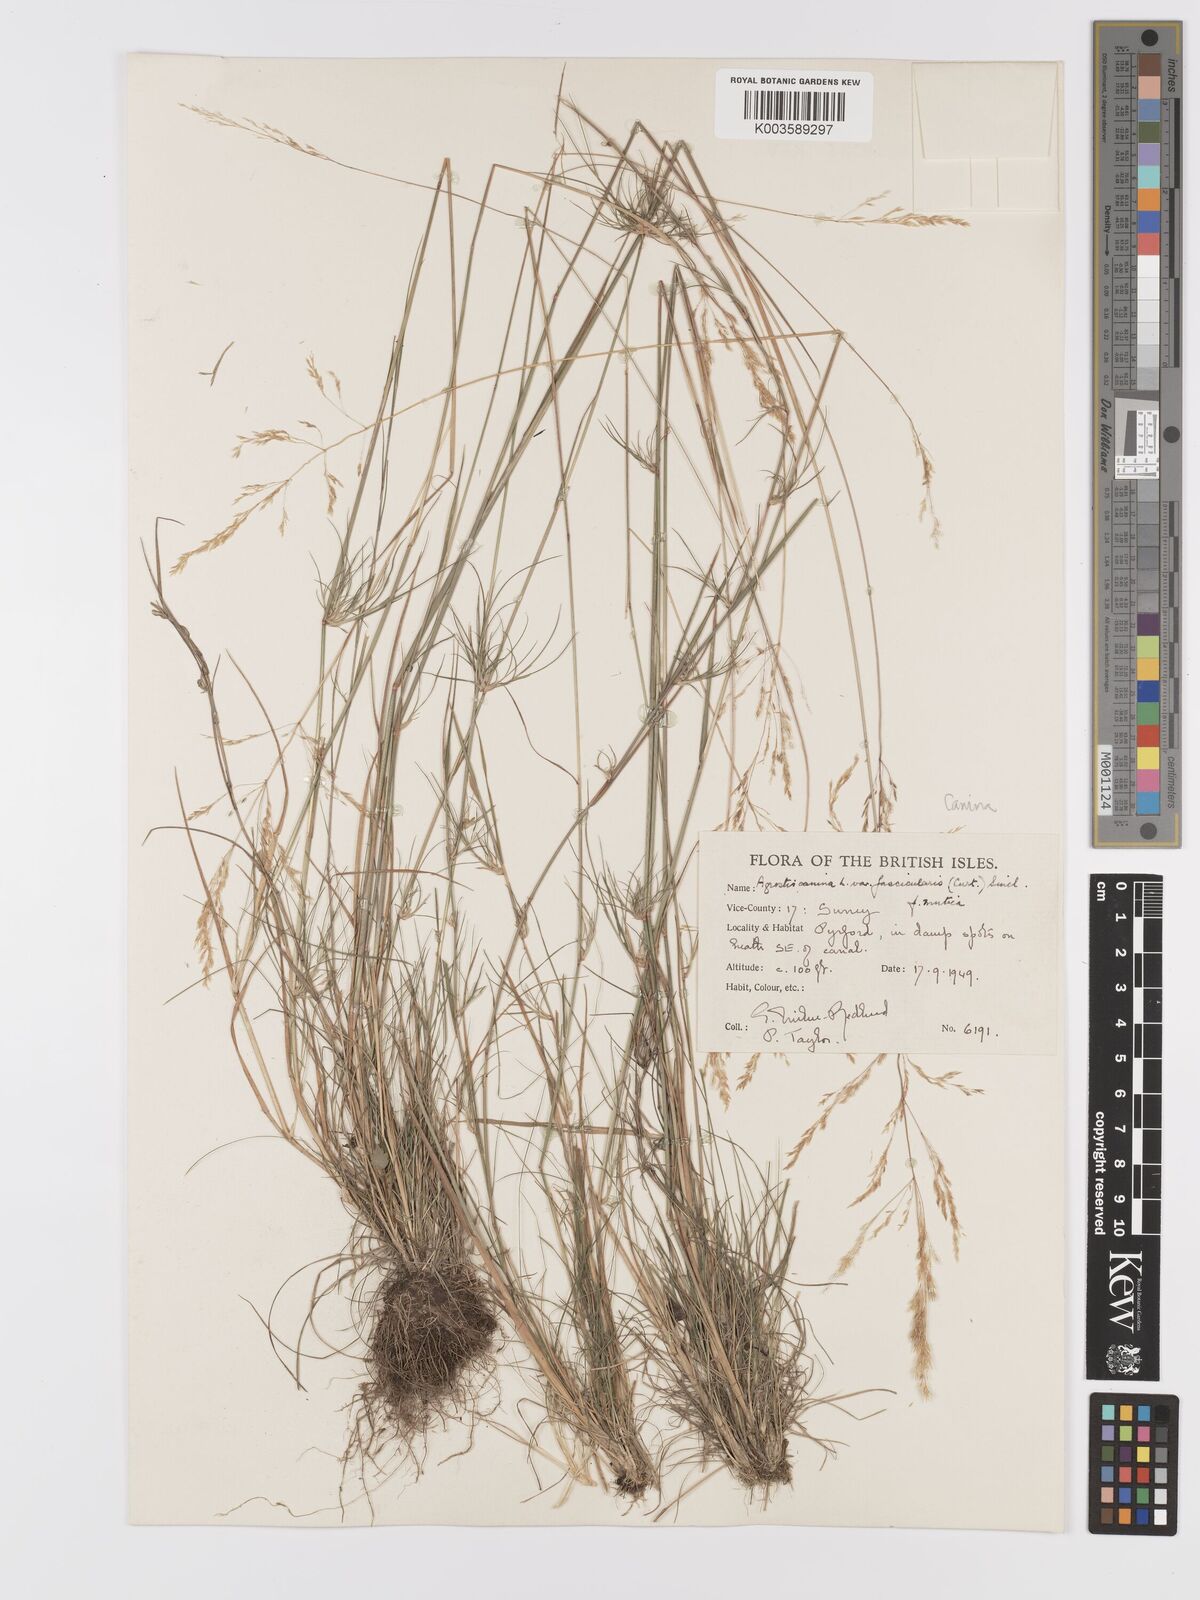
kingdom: Plantae
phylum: Tracheophyta
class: Liliopsida
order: Poales
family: Poaceae
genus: Agrostis
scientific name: Agrostis canina
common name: Velvet bent
